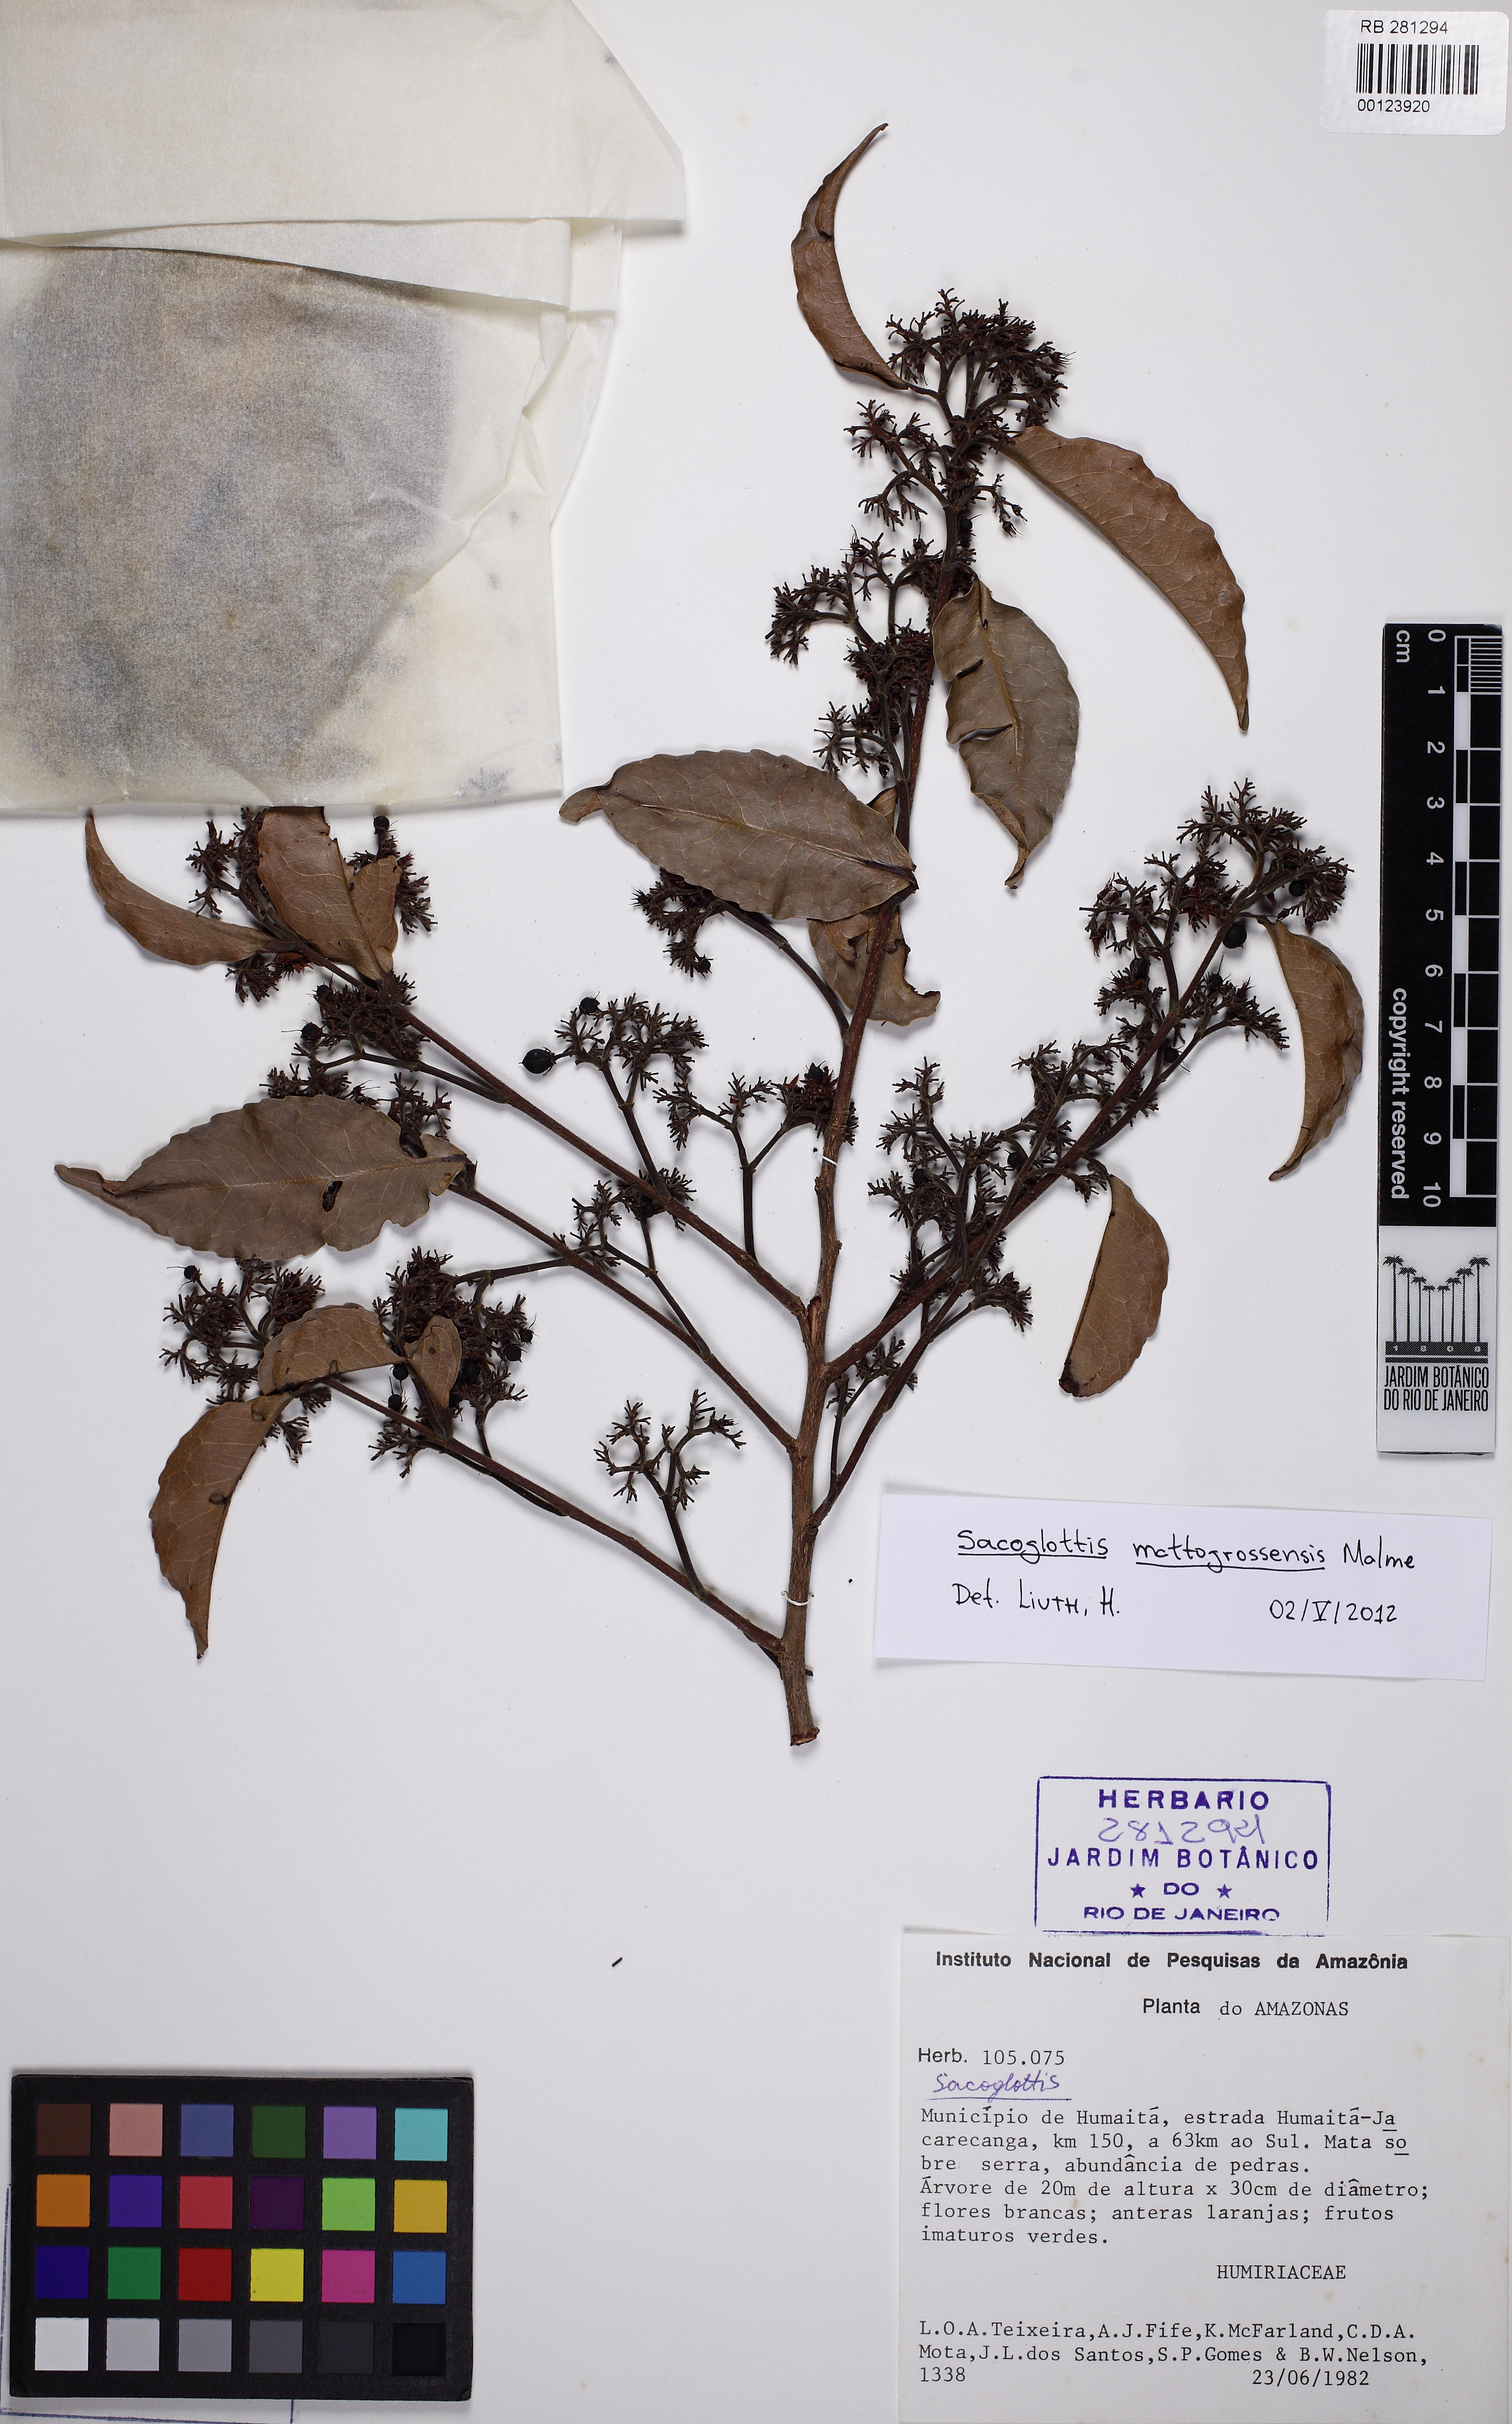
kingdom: Plantae
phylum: Tracheophyta
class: Magnoliopsida
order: Malpighiales
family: Humiriaceae
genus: Sacoglottis
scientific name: Sacoglottis mattogrossensis
